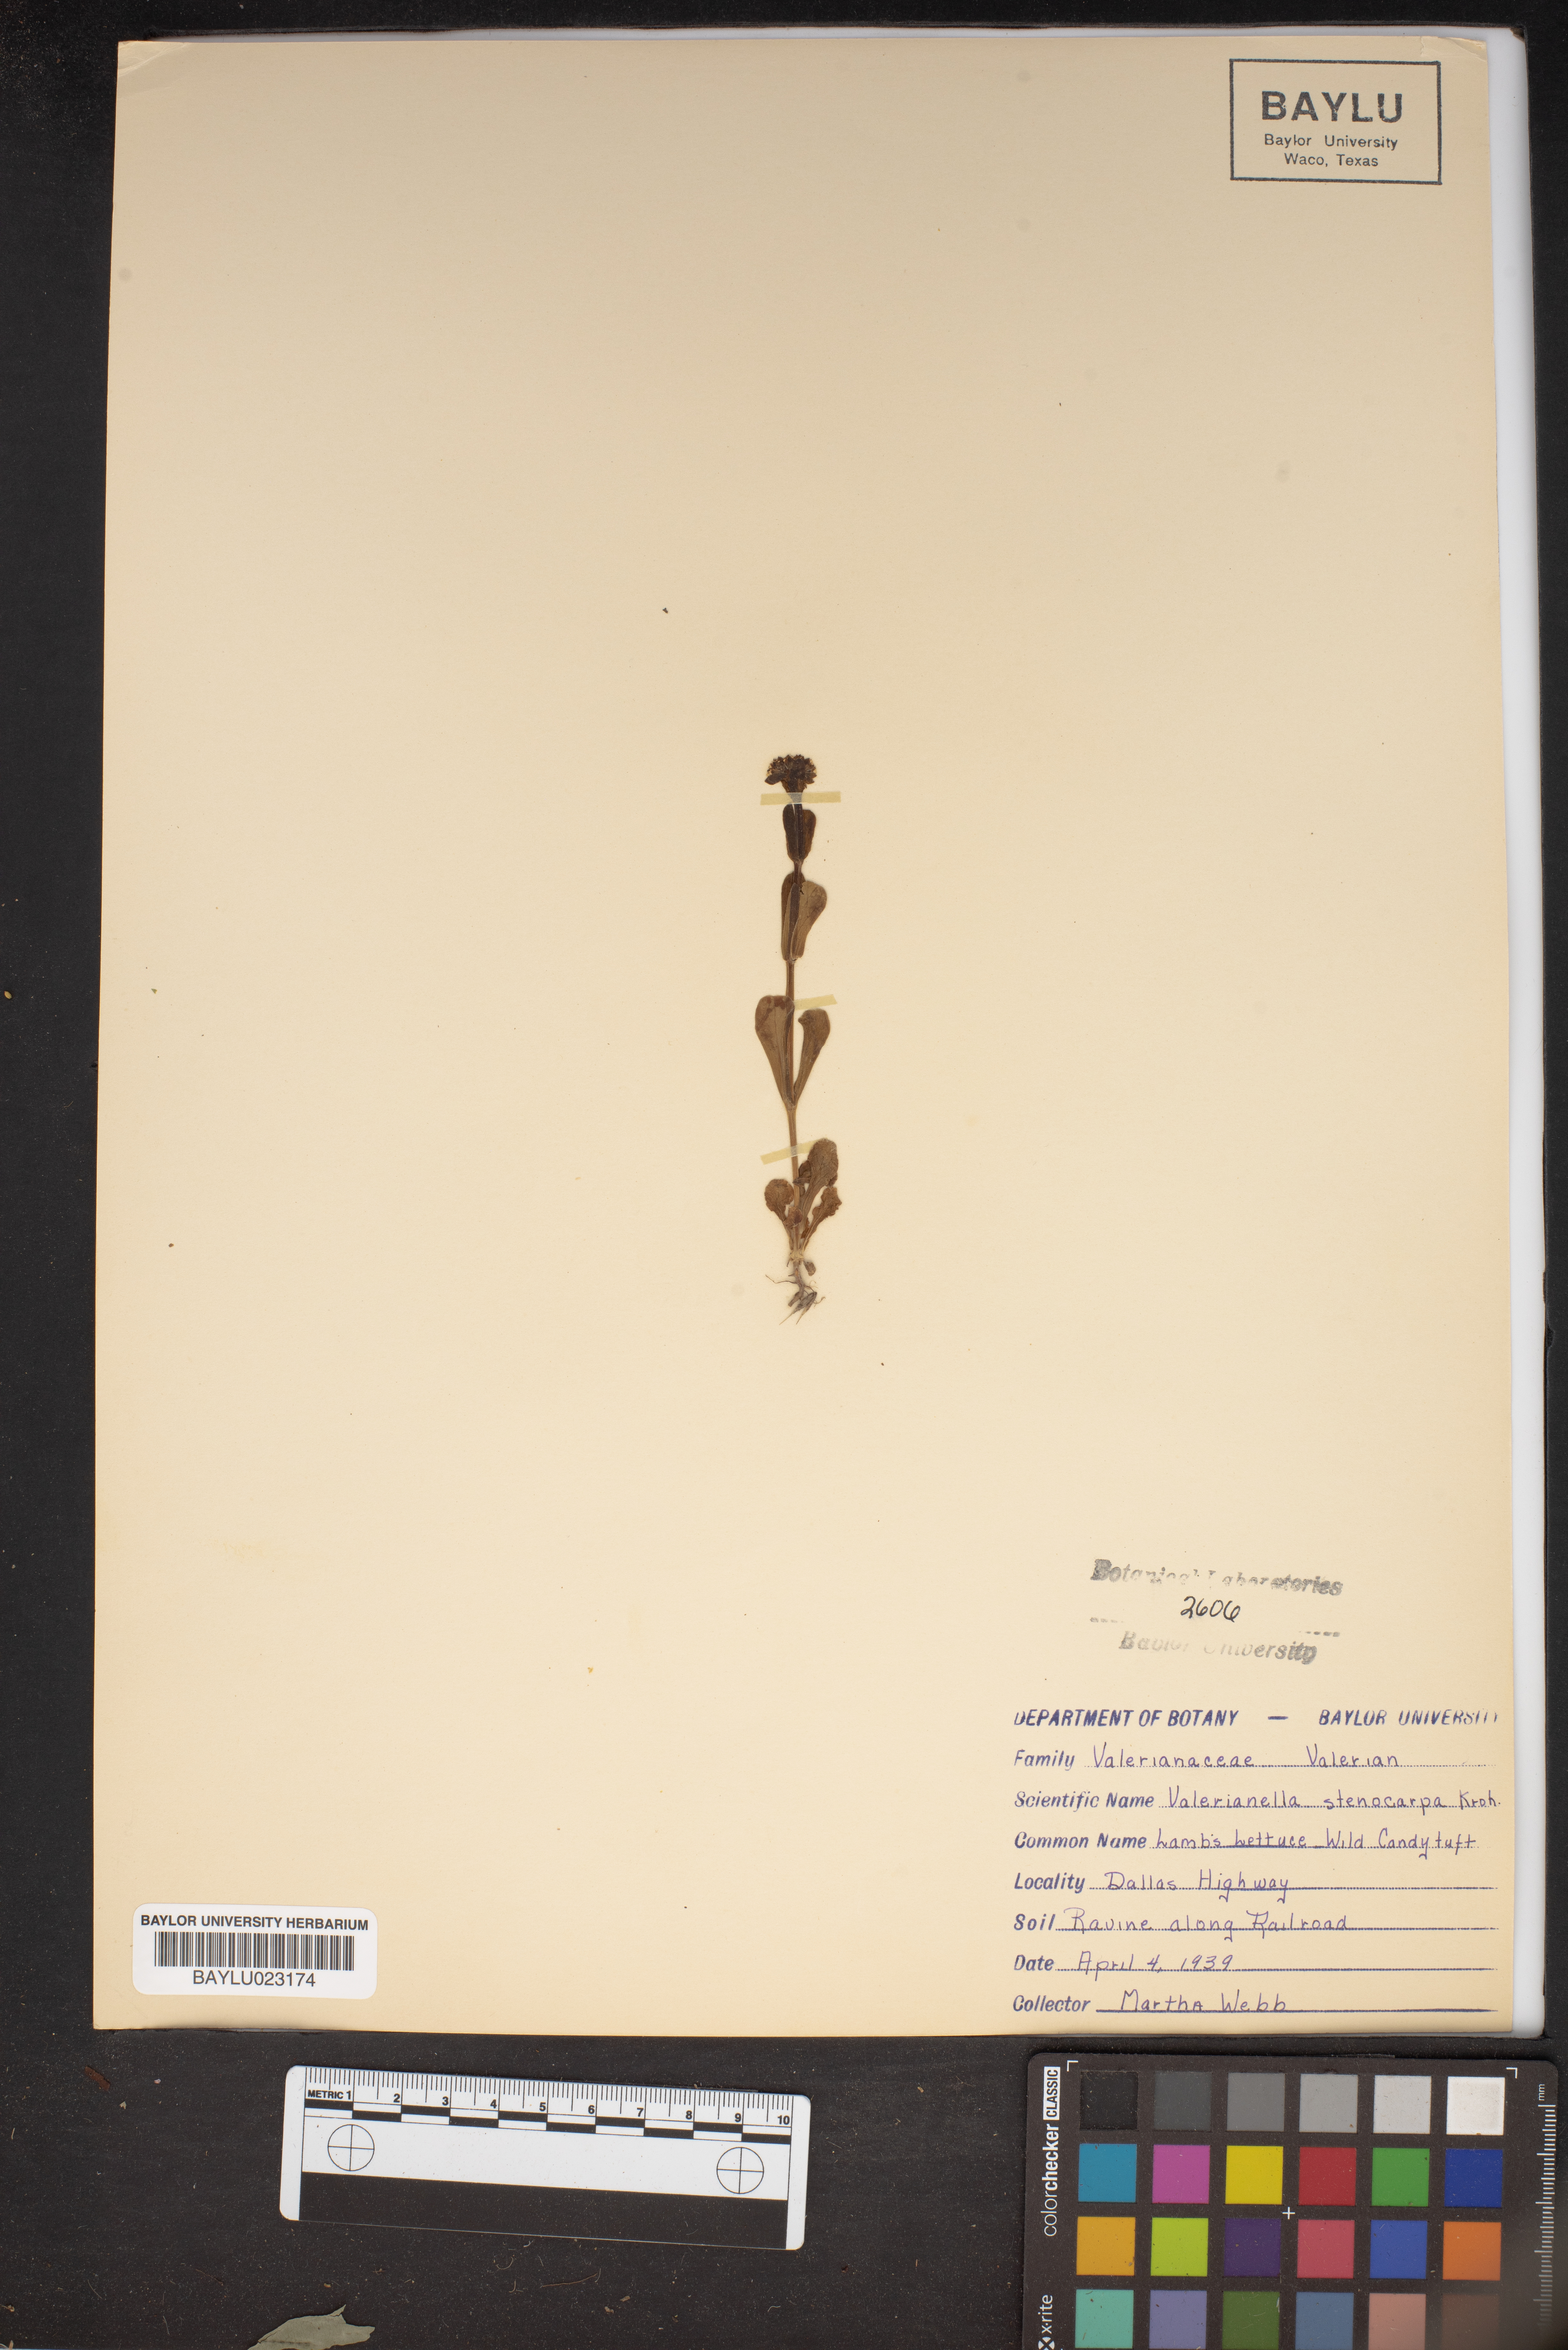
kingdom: Plantae
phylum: Tracheophyta
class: Magnoliopsida
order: Dipsacales
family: Caprifoliaceae
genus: Valerianella
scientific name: Valerianella stenocarpa
